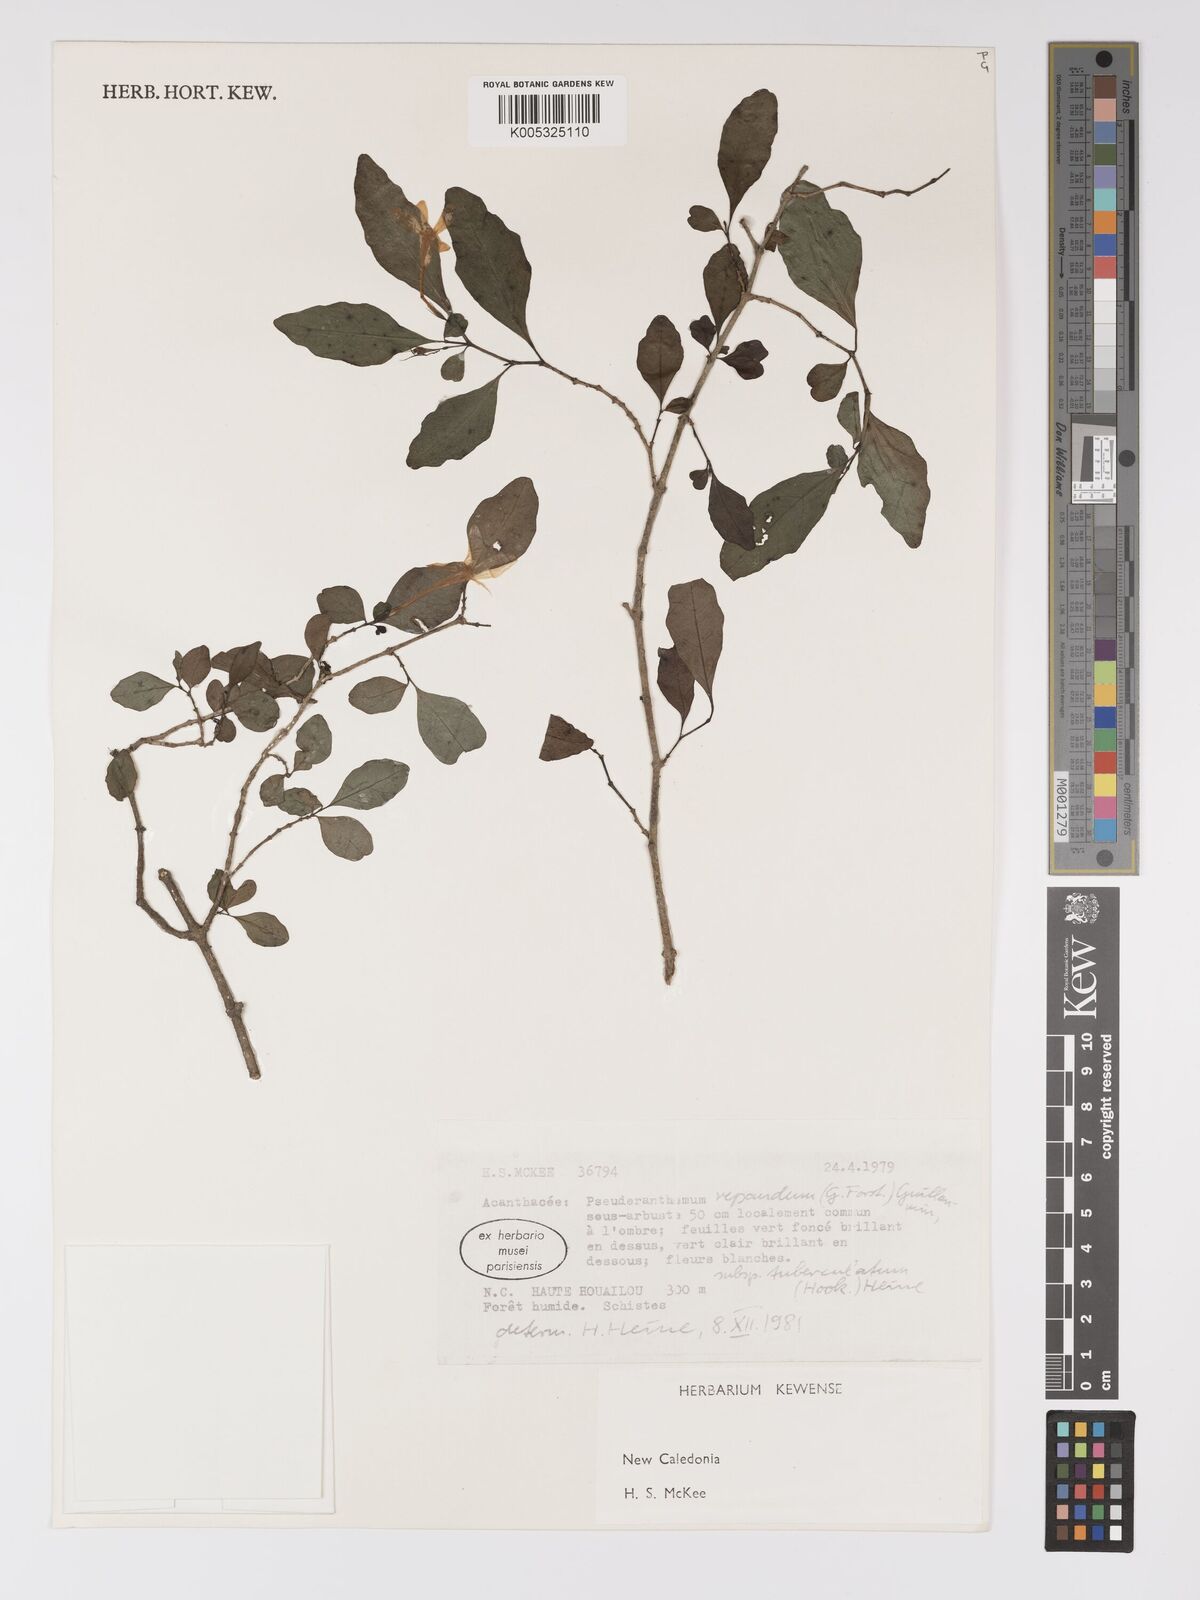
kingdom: Plantae
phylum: Tracheophyta
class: Magnoliopsida
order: Lamiales
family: Acanthaceae
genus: Pseuderanthemum
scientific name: Pseuderanthemum repandum
